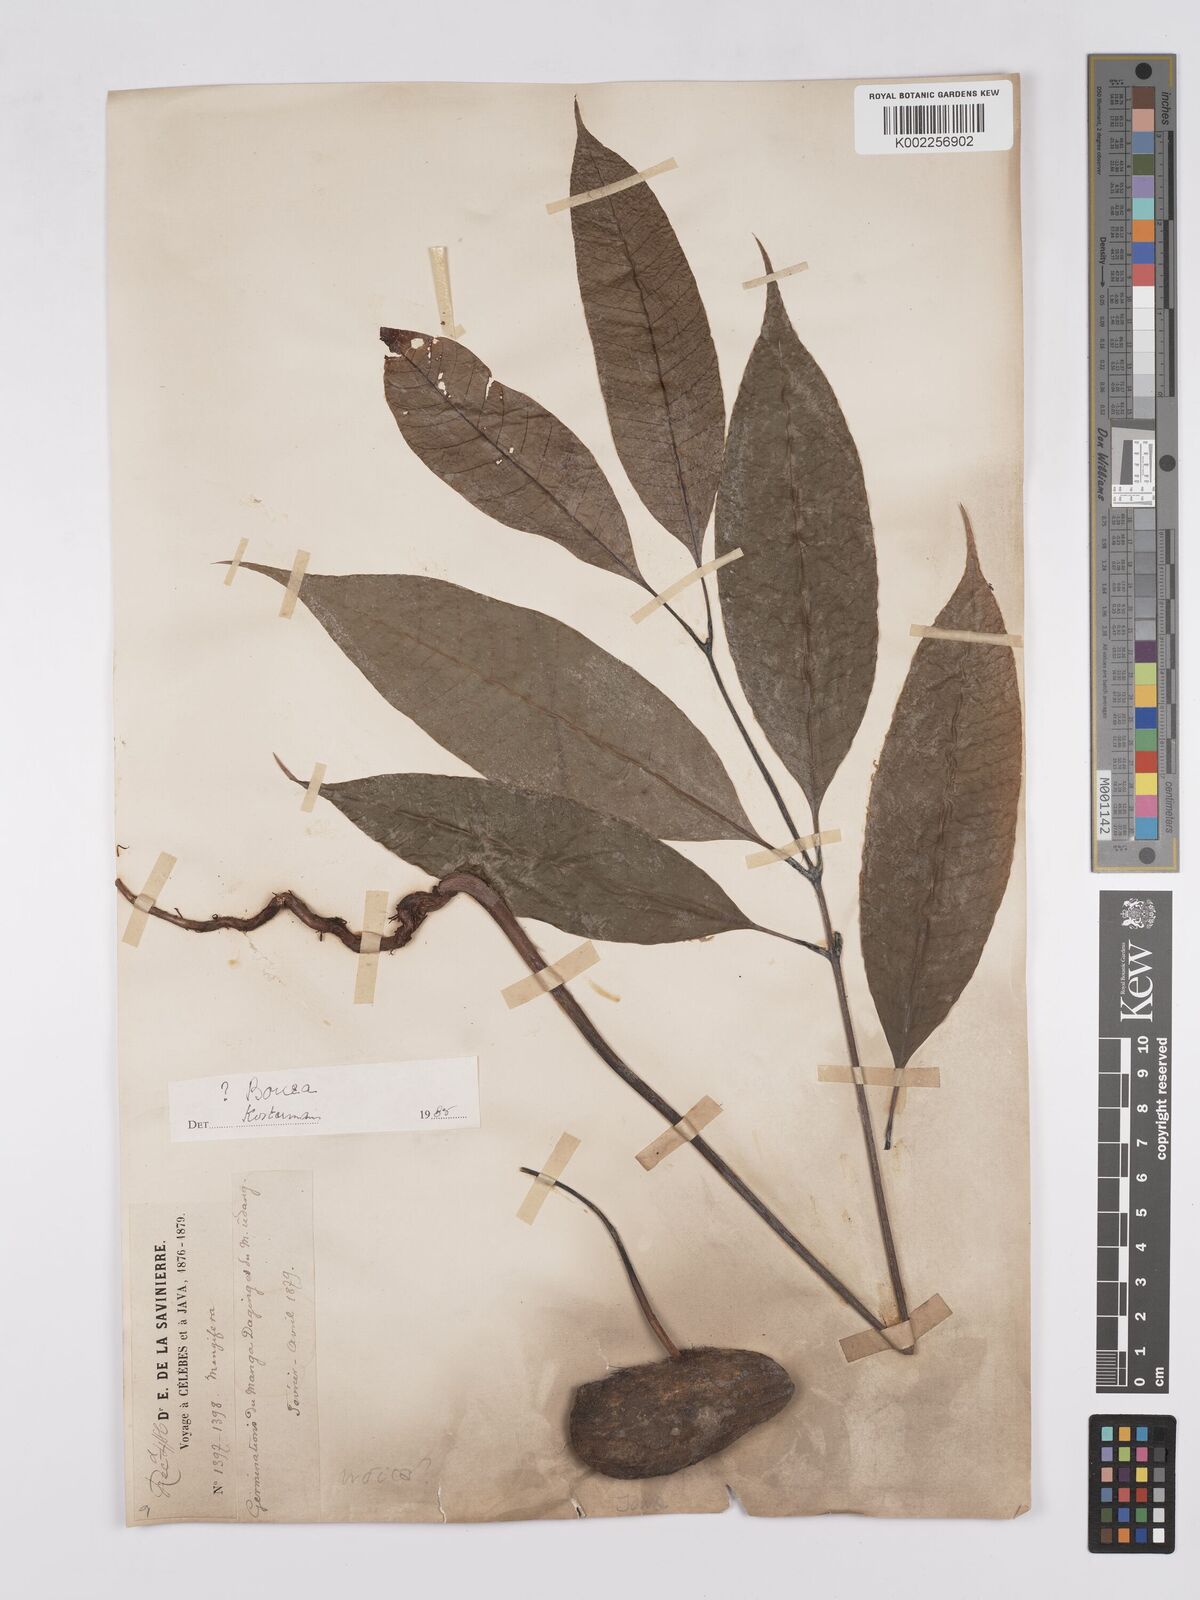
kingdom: Plantae
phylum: Tracheophyta
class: Magnoliopsida
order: Sapindales
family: Anacardiaceae
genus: Bouea
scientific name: Bouea
